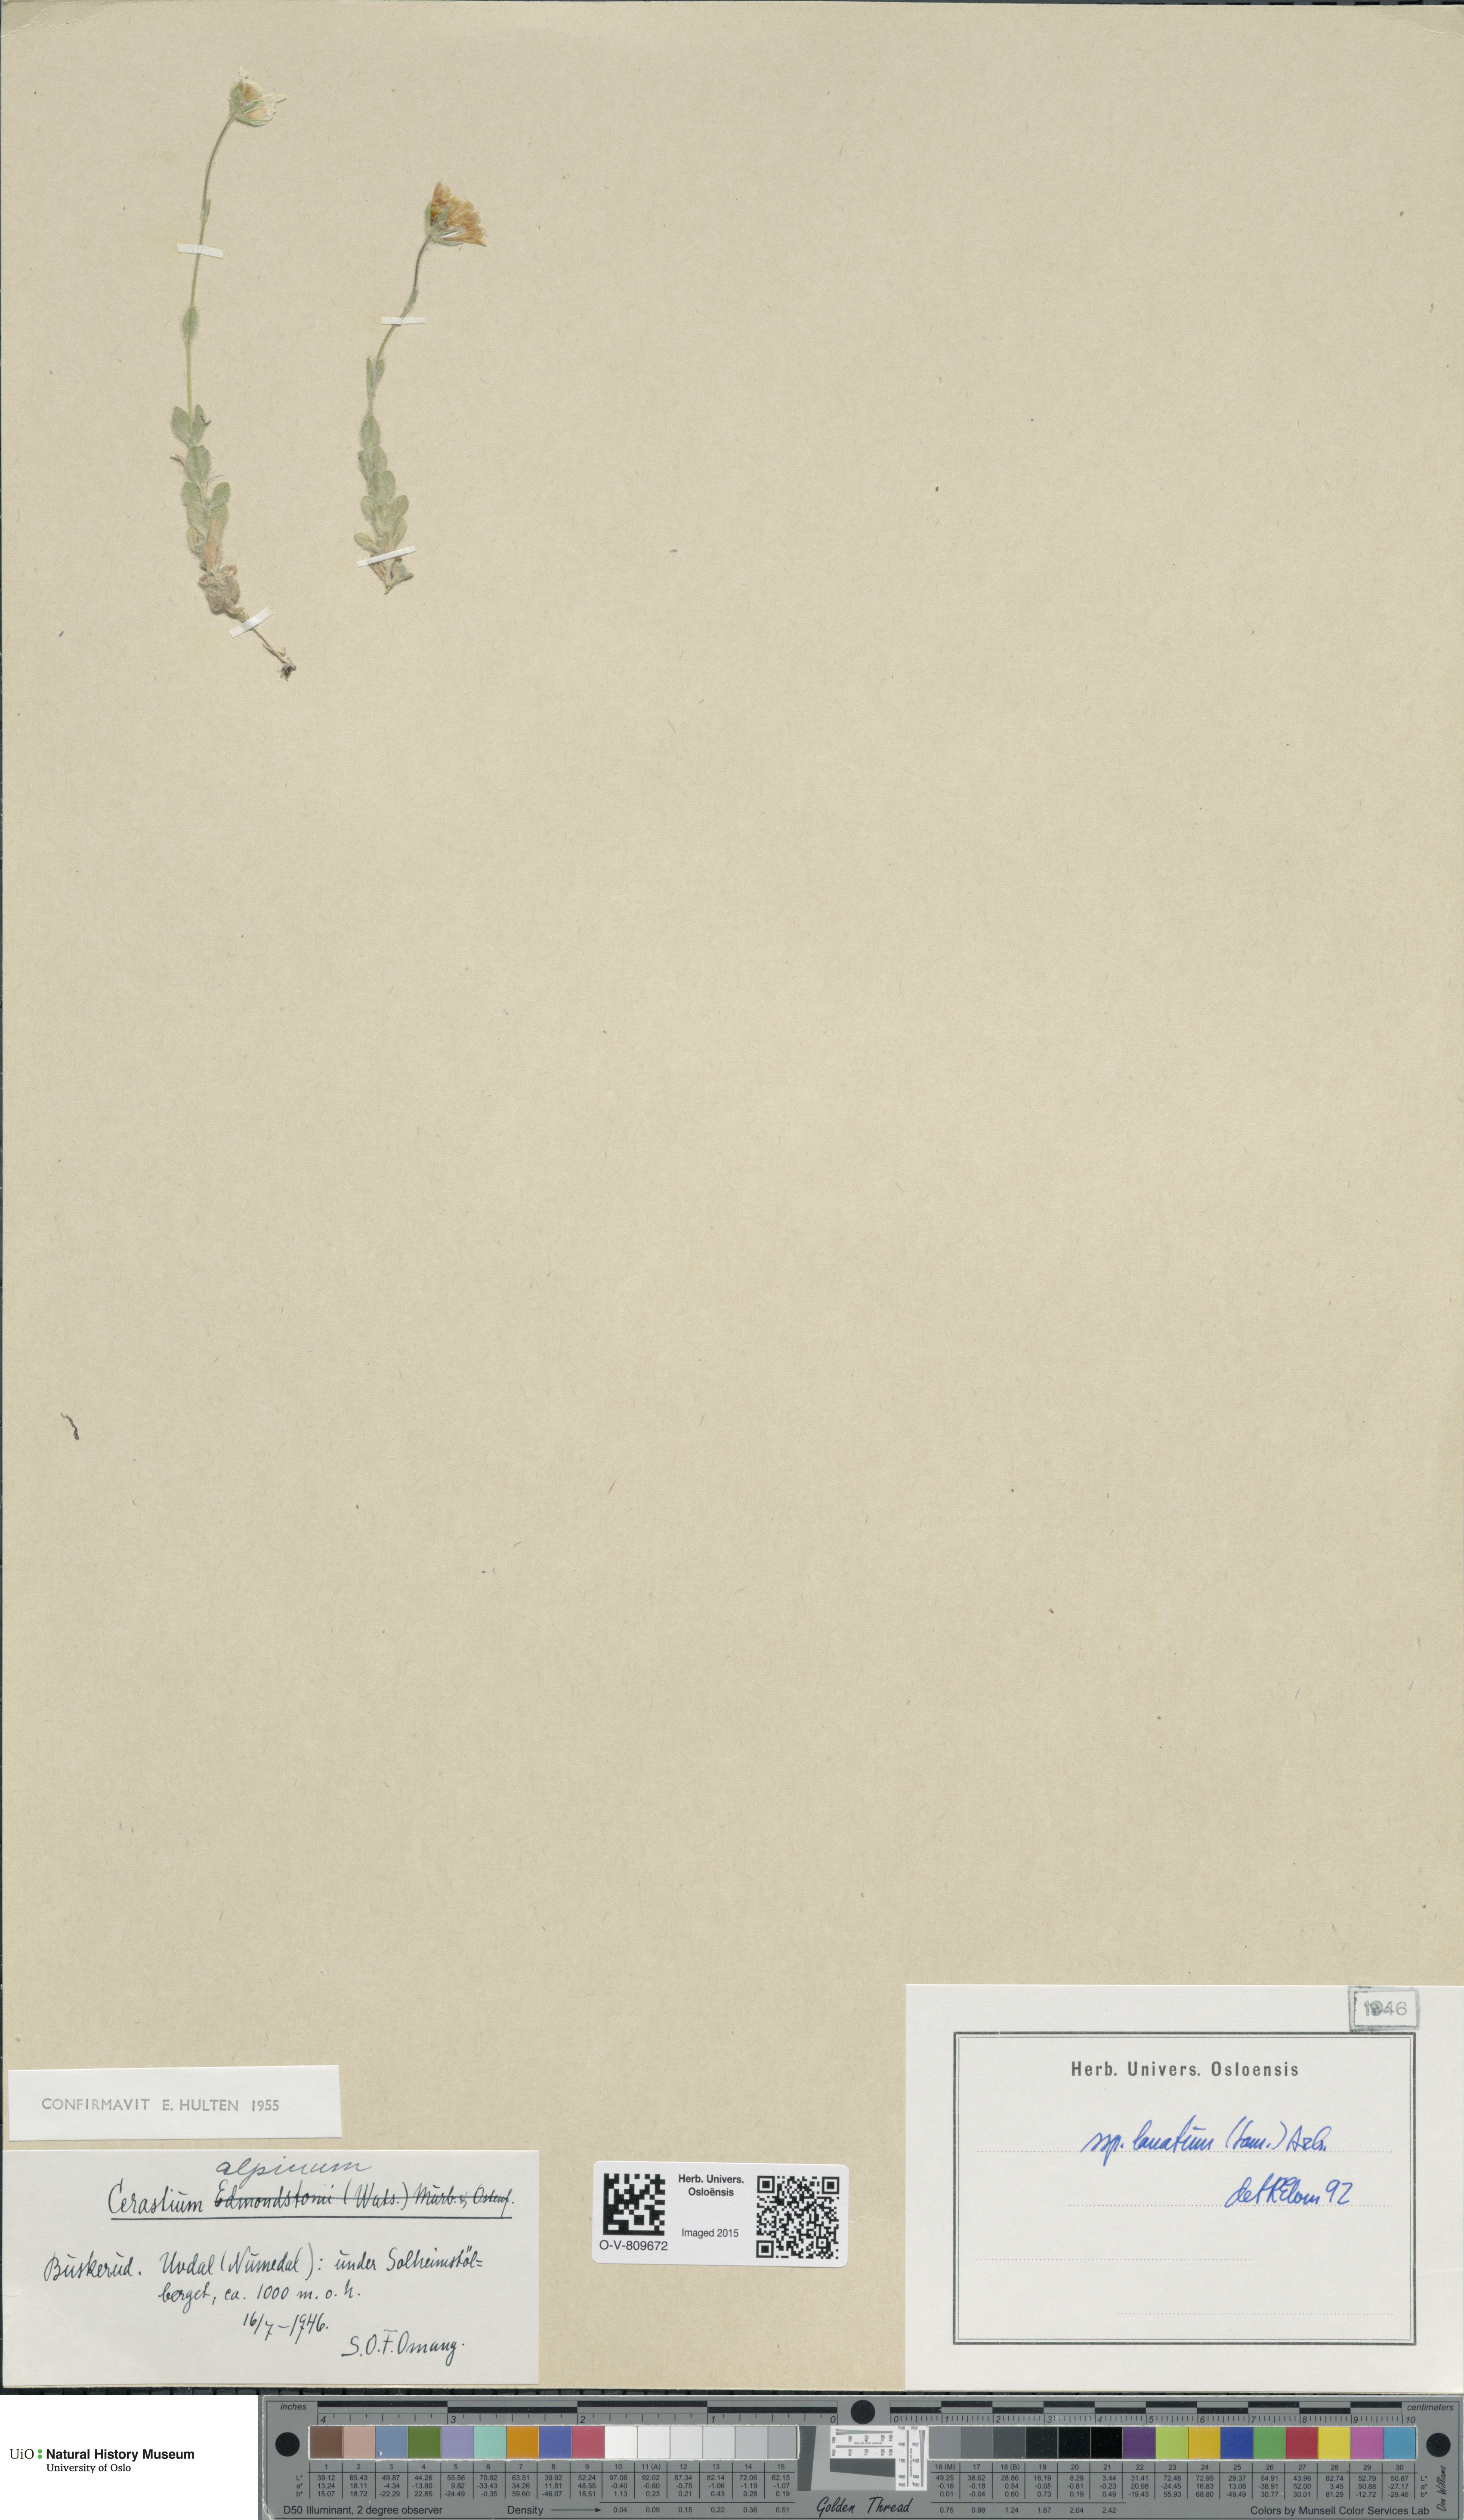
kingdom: Plantae
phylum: Tracheophyta
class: Magnoliopsida
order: Caryophyllales
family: Caryophyllaceae
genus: Cerastium
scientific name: Cerastium alpinum
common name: Alpine mouse-ear
